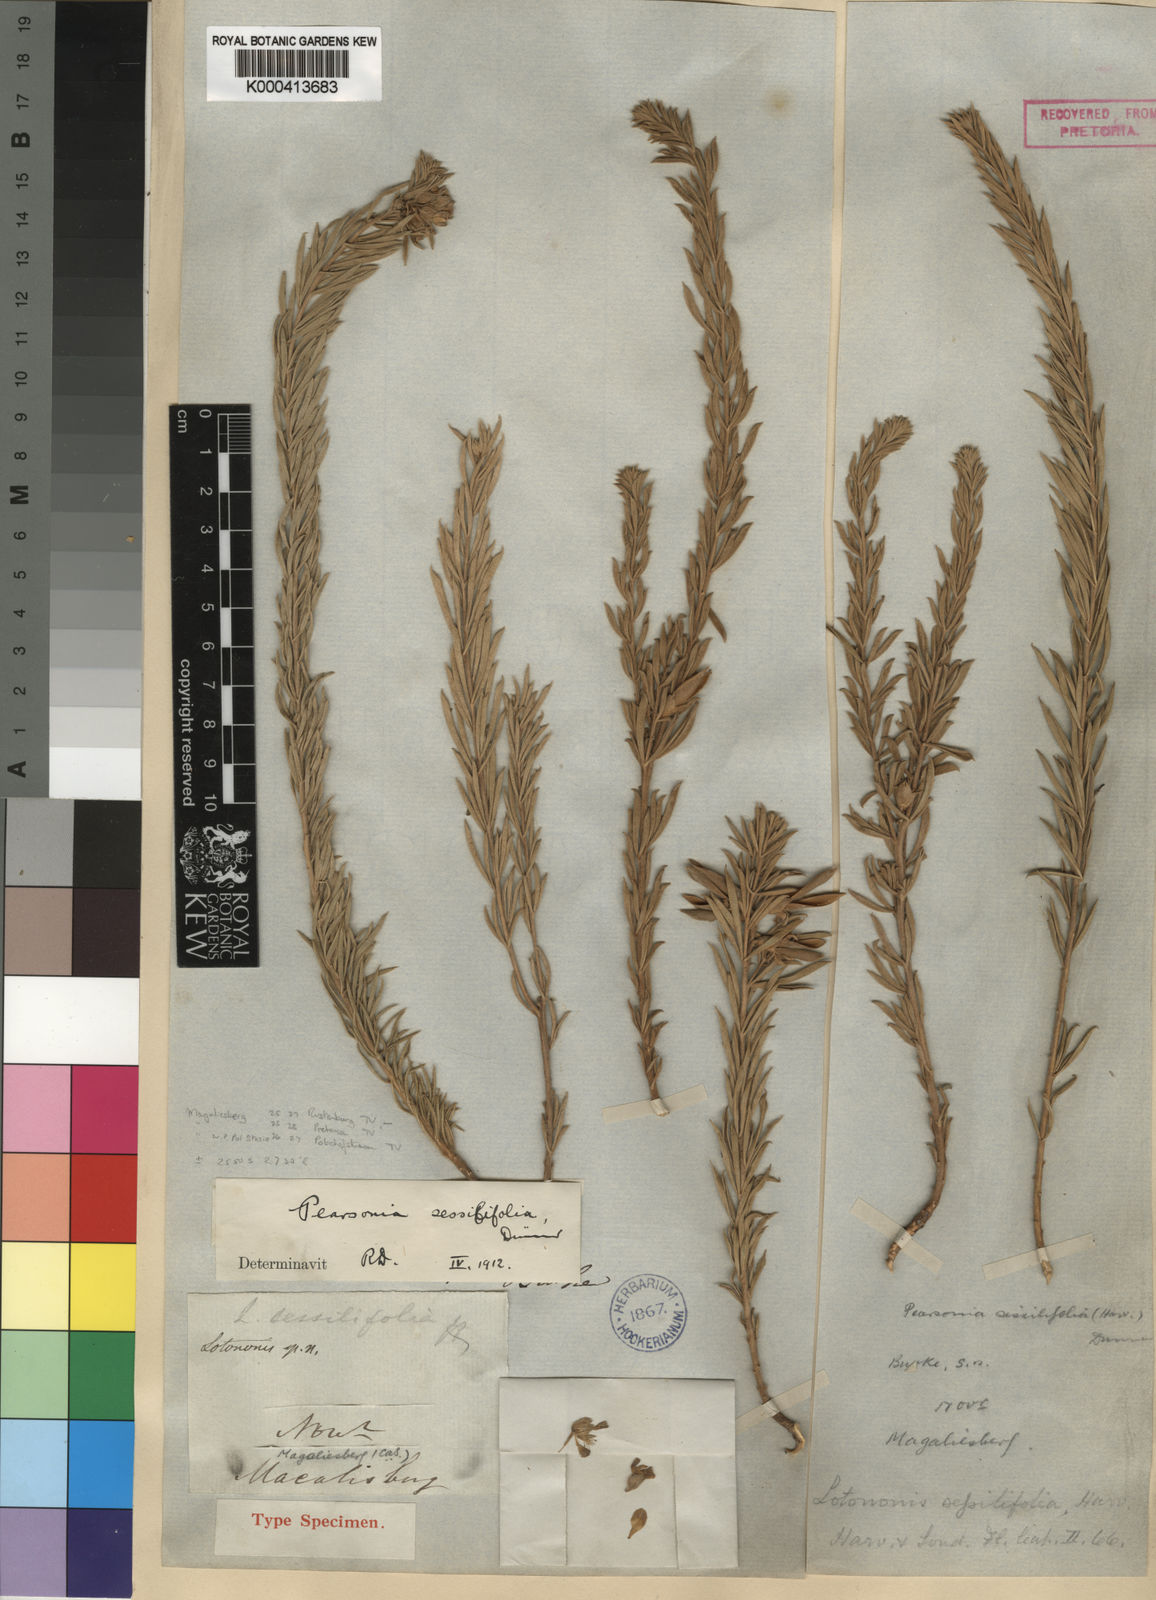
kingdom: Plantae
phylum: Tracheophyta
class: Magnoliopsida
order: Fabales
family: Fabaceae
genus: Pearsonia
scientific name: Pearsonia sessilifolia
